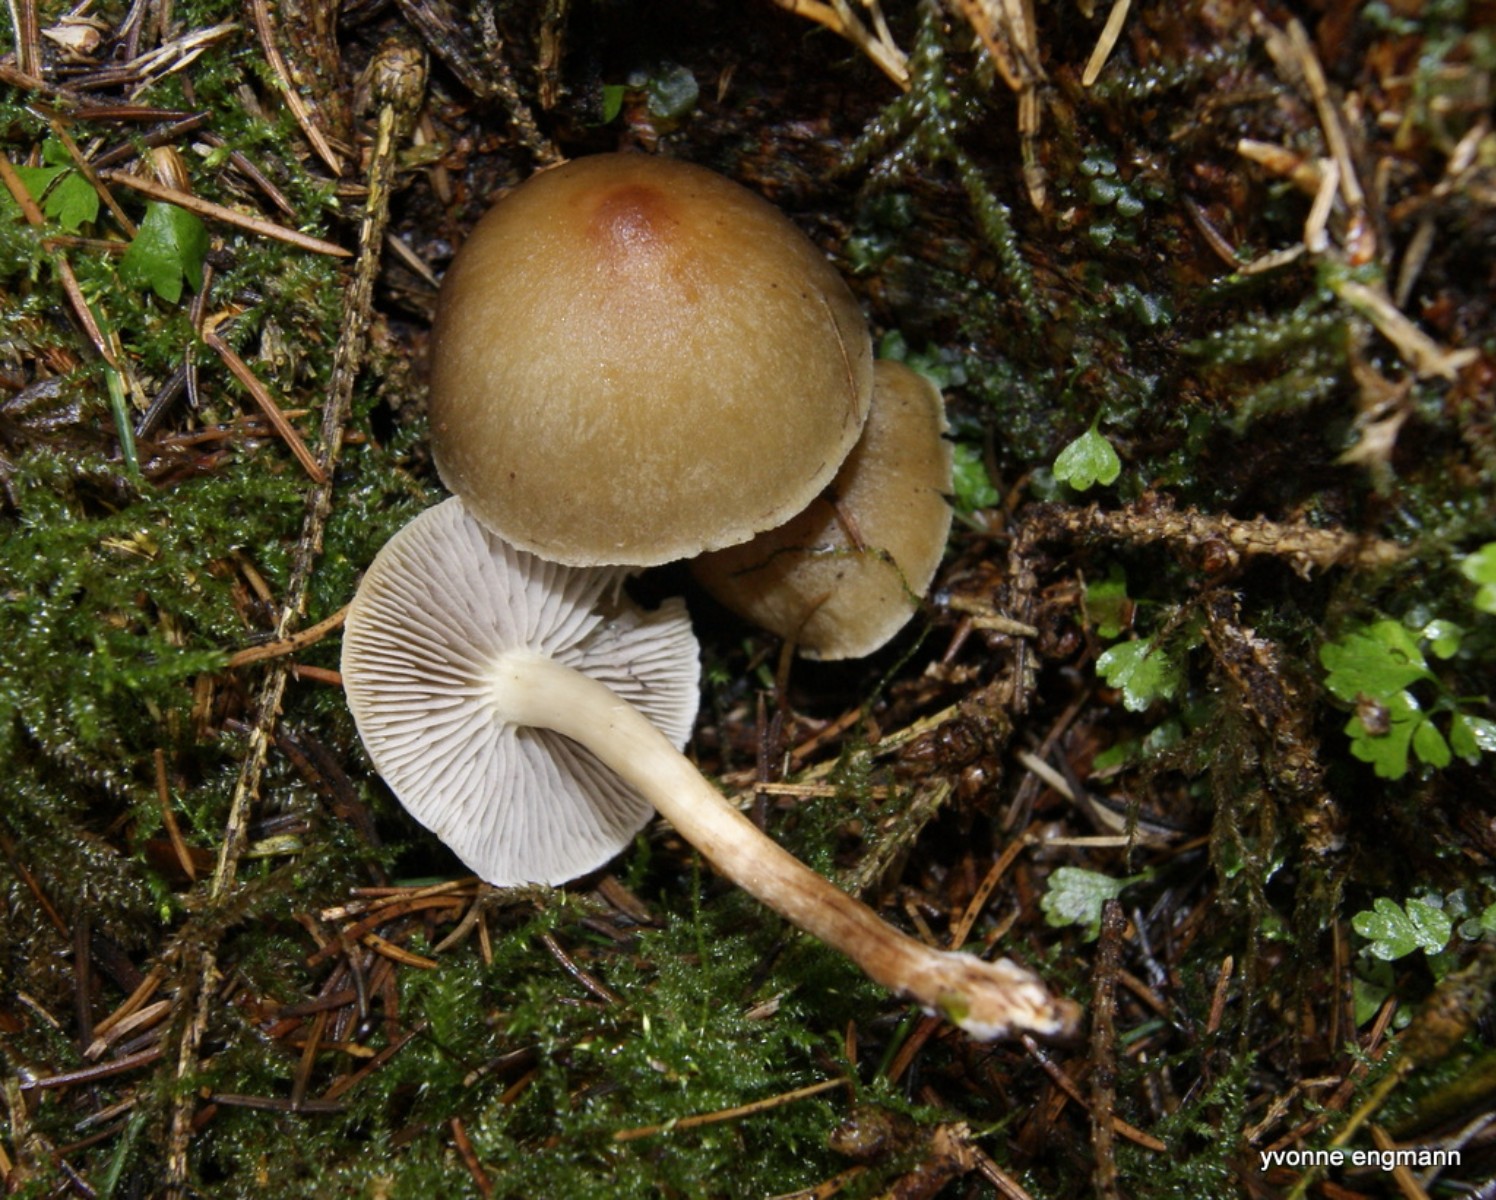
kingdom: Fungi
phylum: Basidiomycota
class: Agaricomycetes
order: Agaricales
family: Strophariaceae
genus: Hypholoma
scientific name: Hypholoma capnoides
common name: gran-svovlhat
